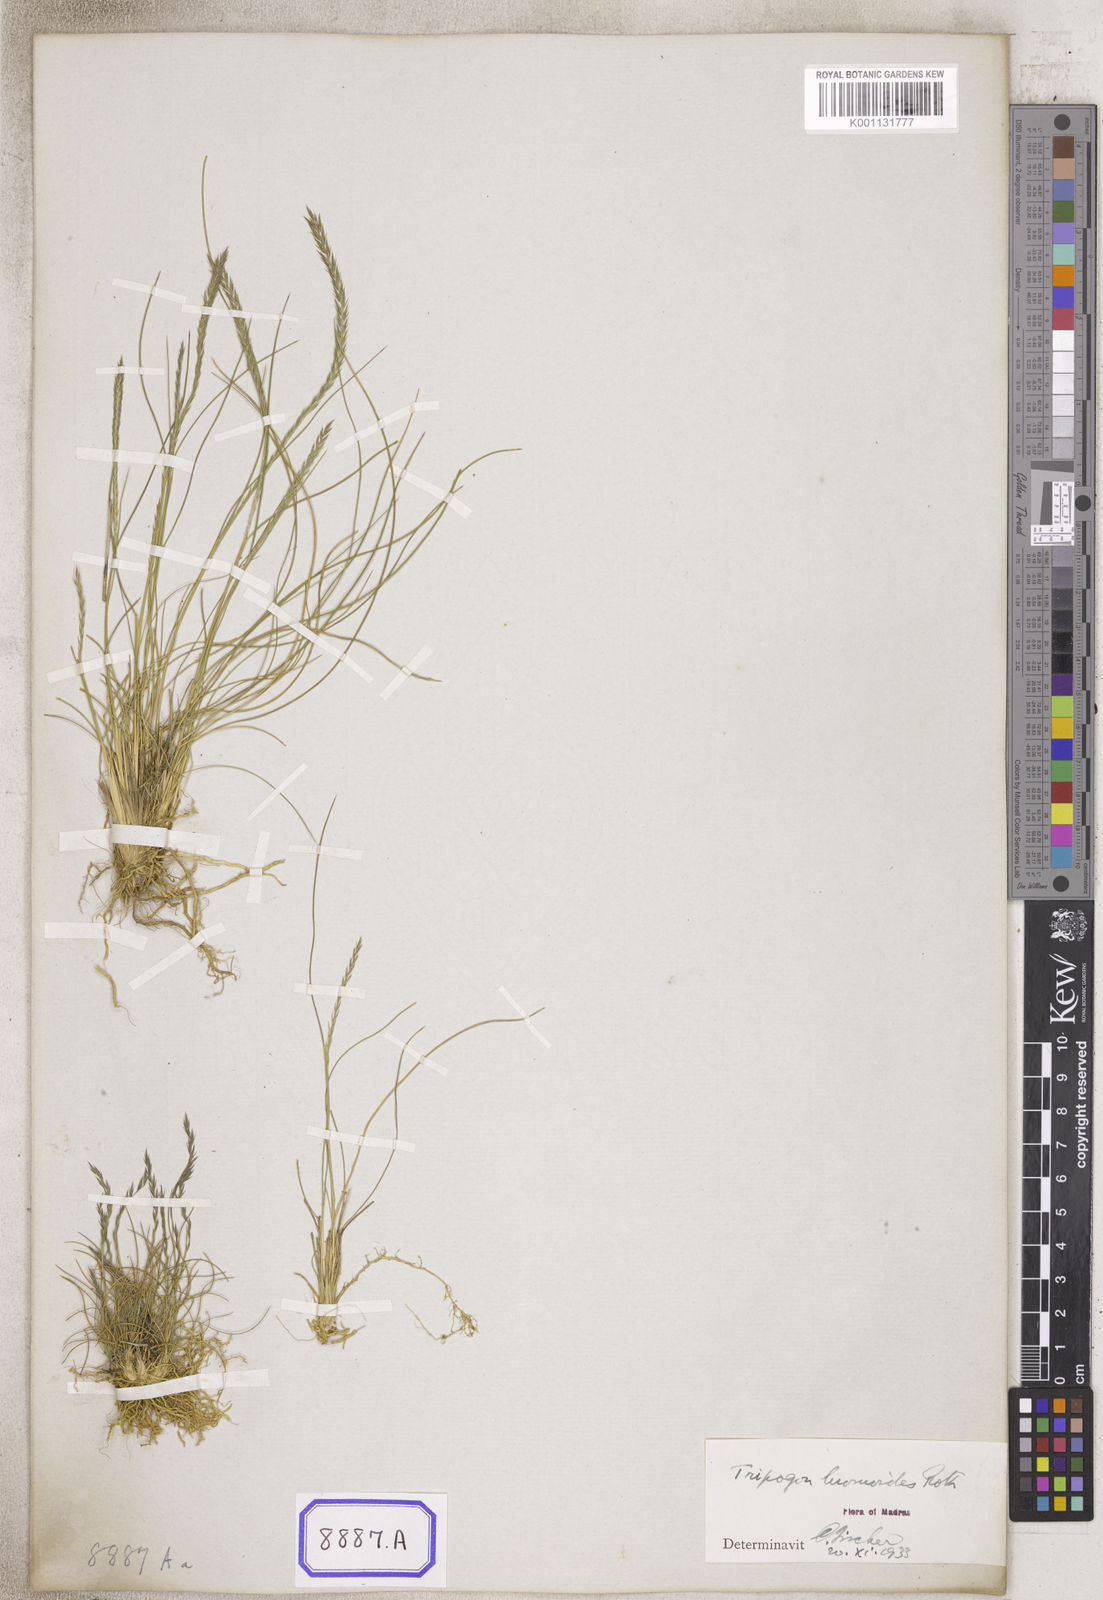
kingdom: Plantae
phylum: Tracheophyta
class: Liliopsida
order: Poales
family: Poaceae
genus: Tripogon
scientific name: Tripogon
